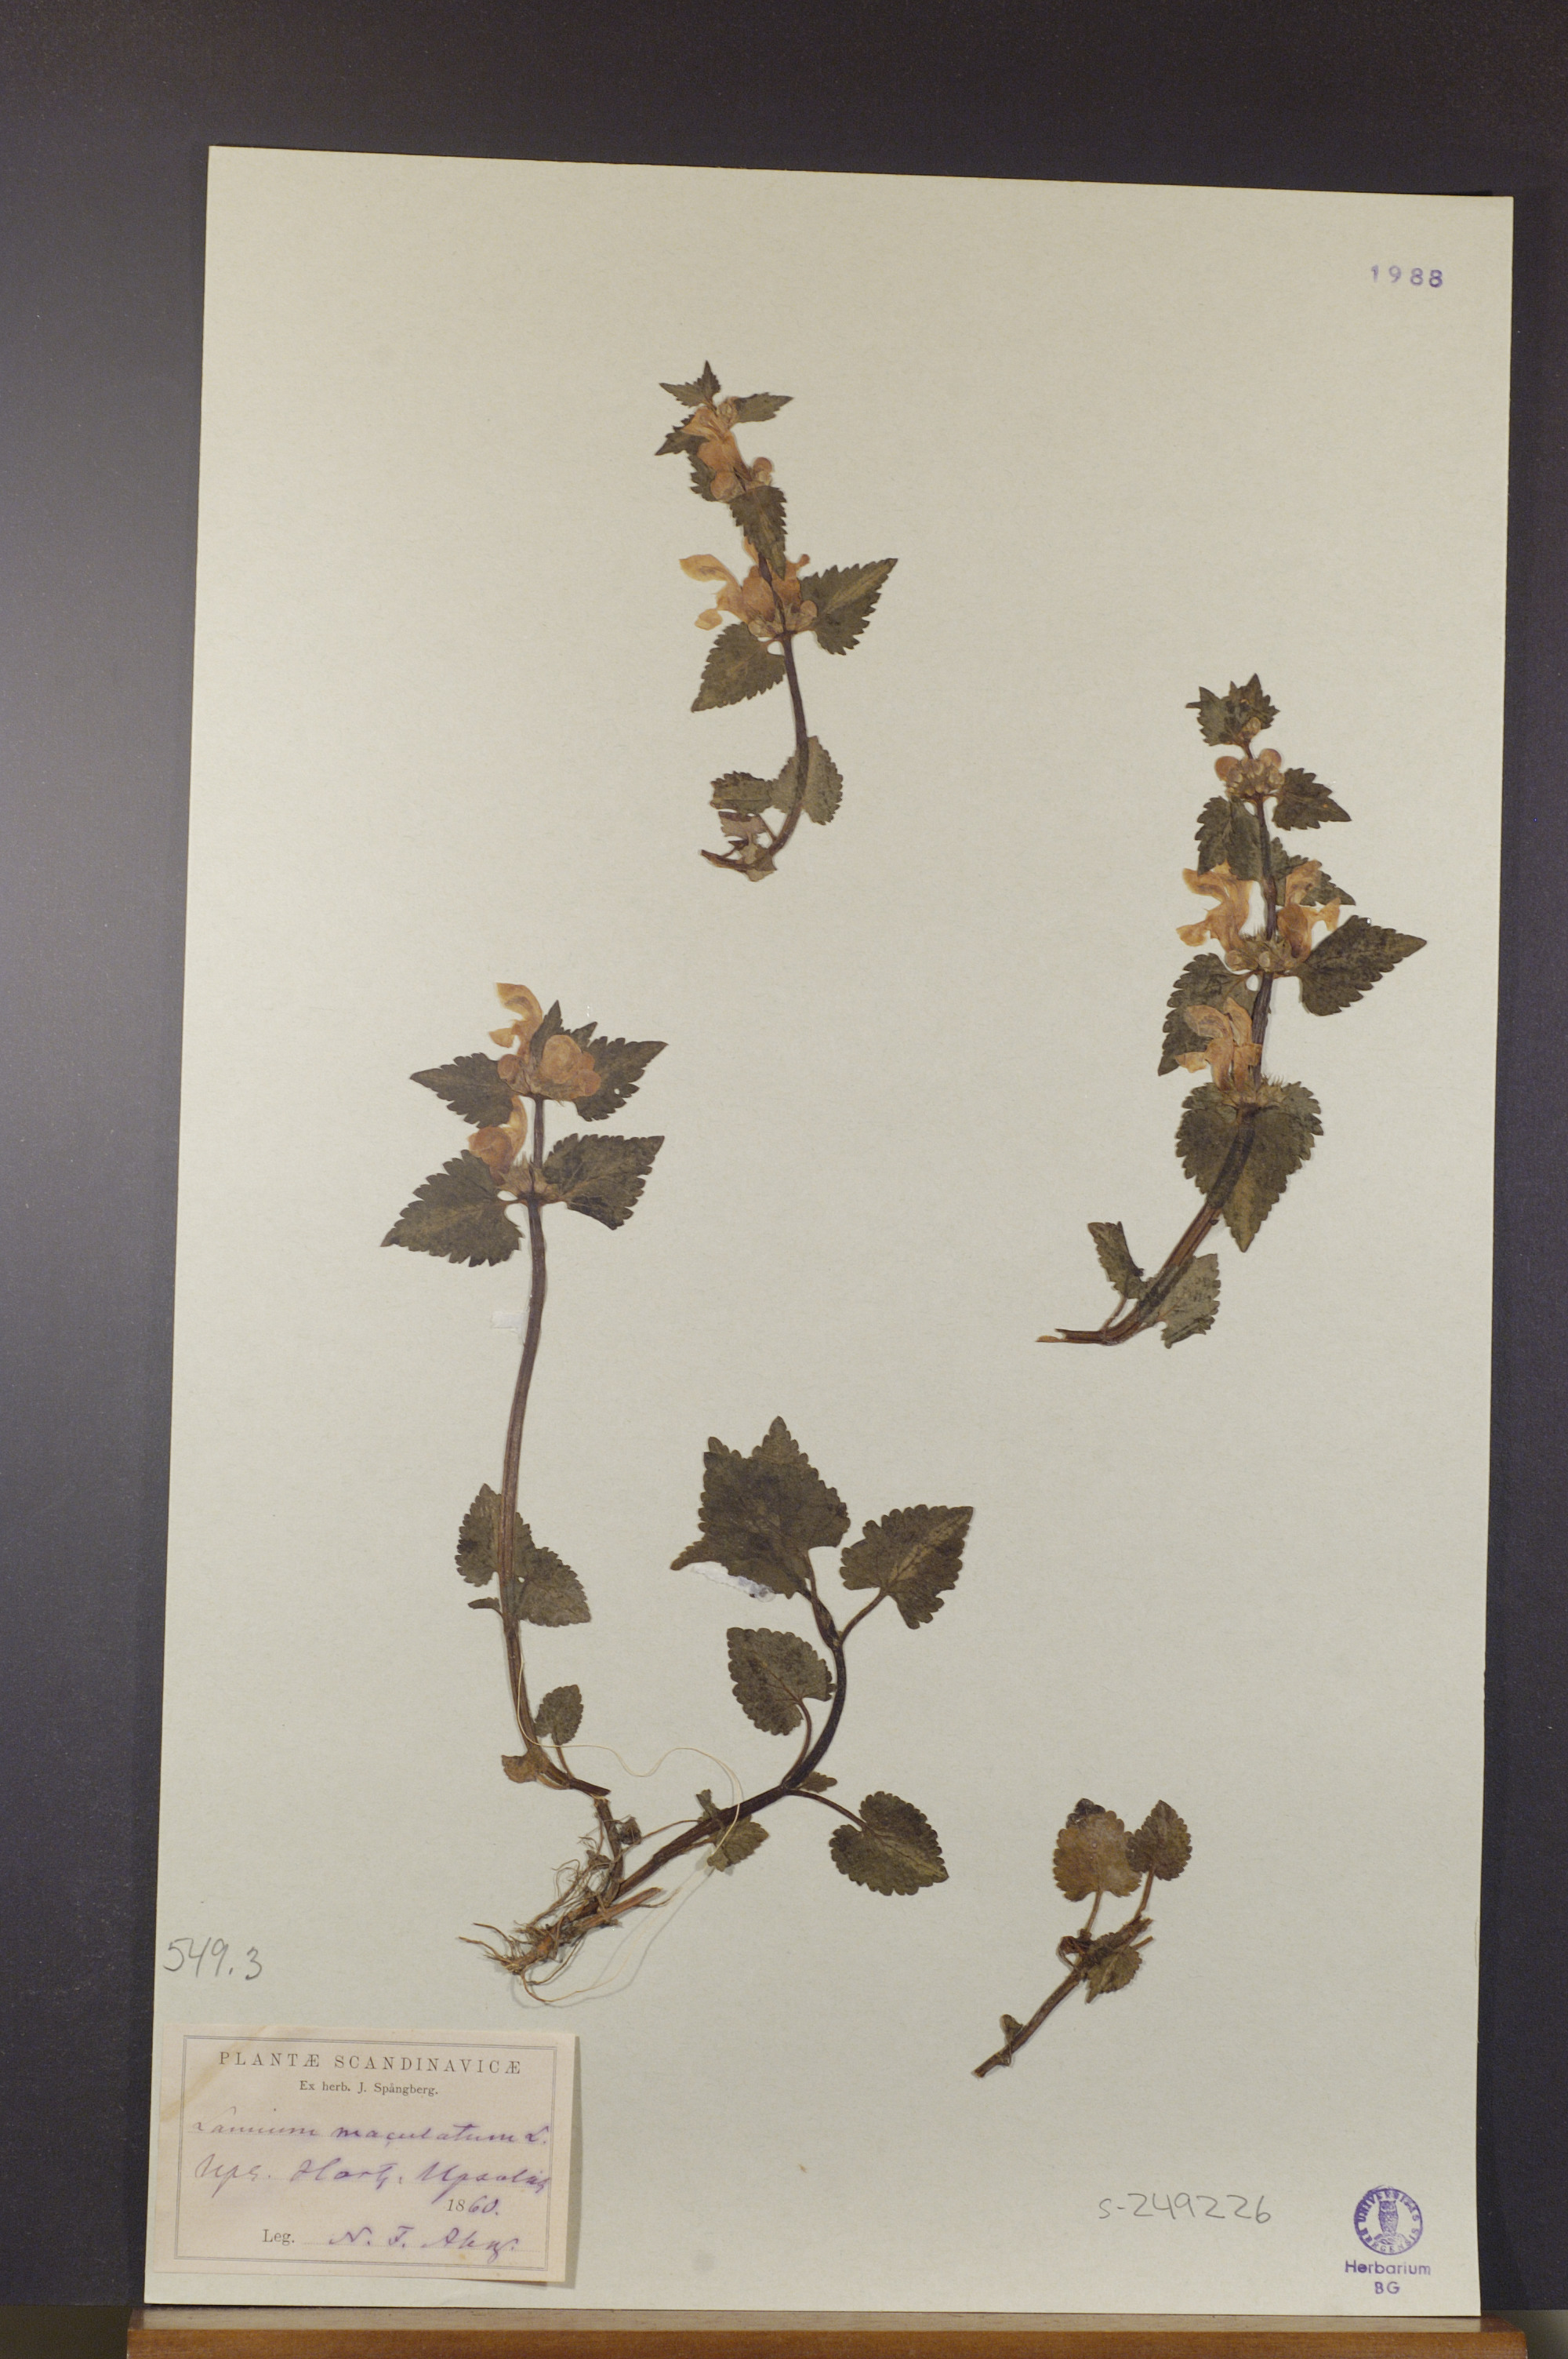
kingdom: Plantae
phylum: Tracheophyta
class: Magnoliopsida
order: Lamiales
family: Lamiaceae
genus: Lamium
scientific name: Lamium maculatum
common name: Spotted dead-nettle
